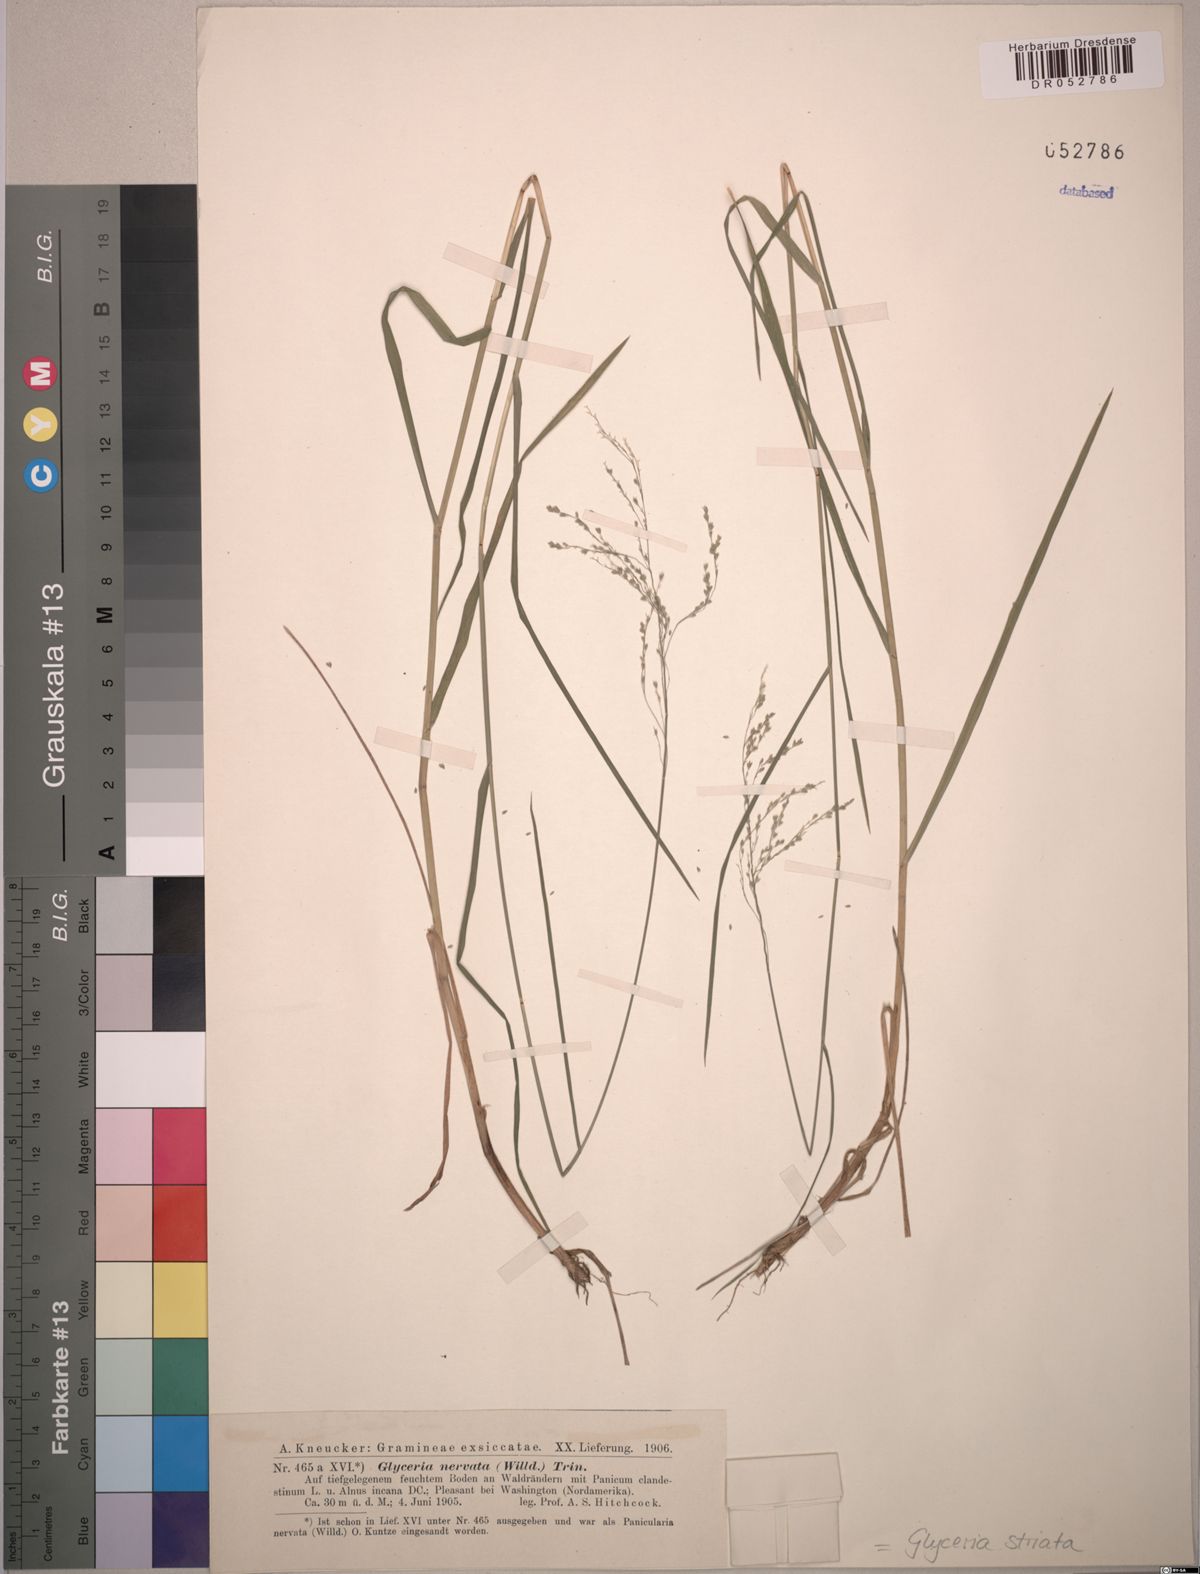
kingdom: Plantae
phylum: Tracheophyta
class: Liliopsida
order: Poales
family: Poaceae
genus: Glyceria
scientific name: Glyceria striata
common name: Fowl manna grass
